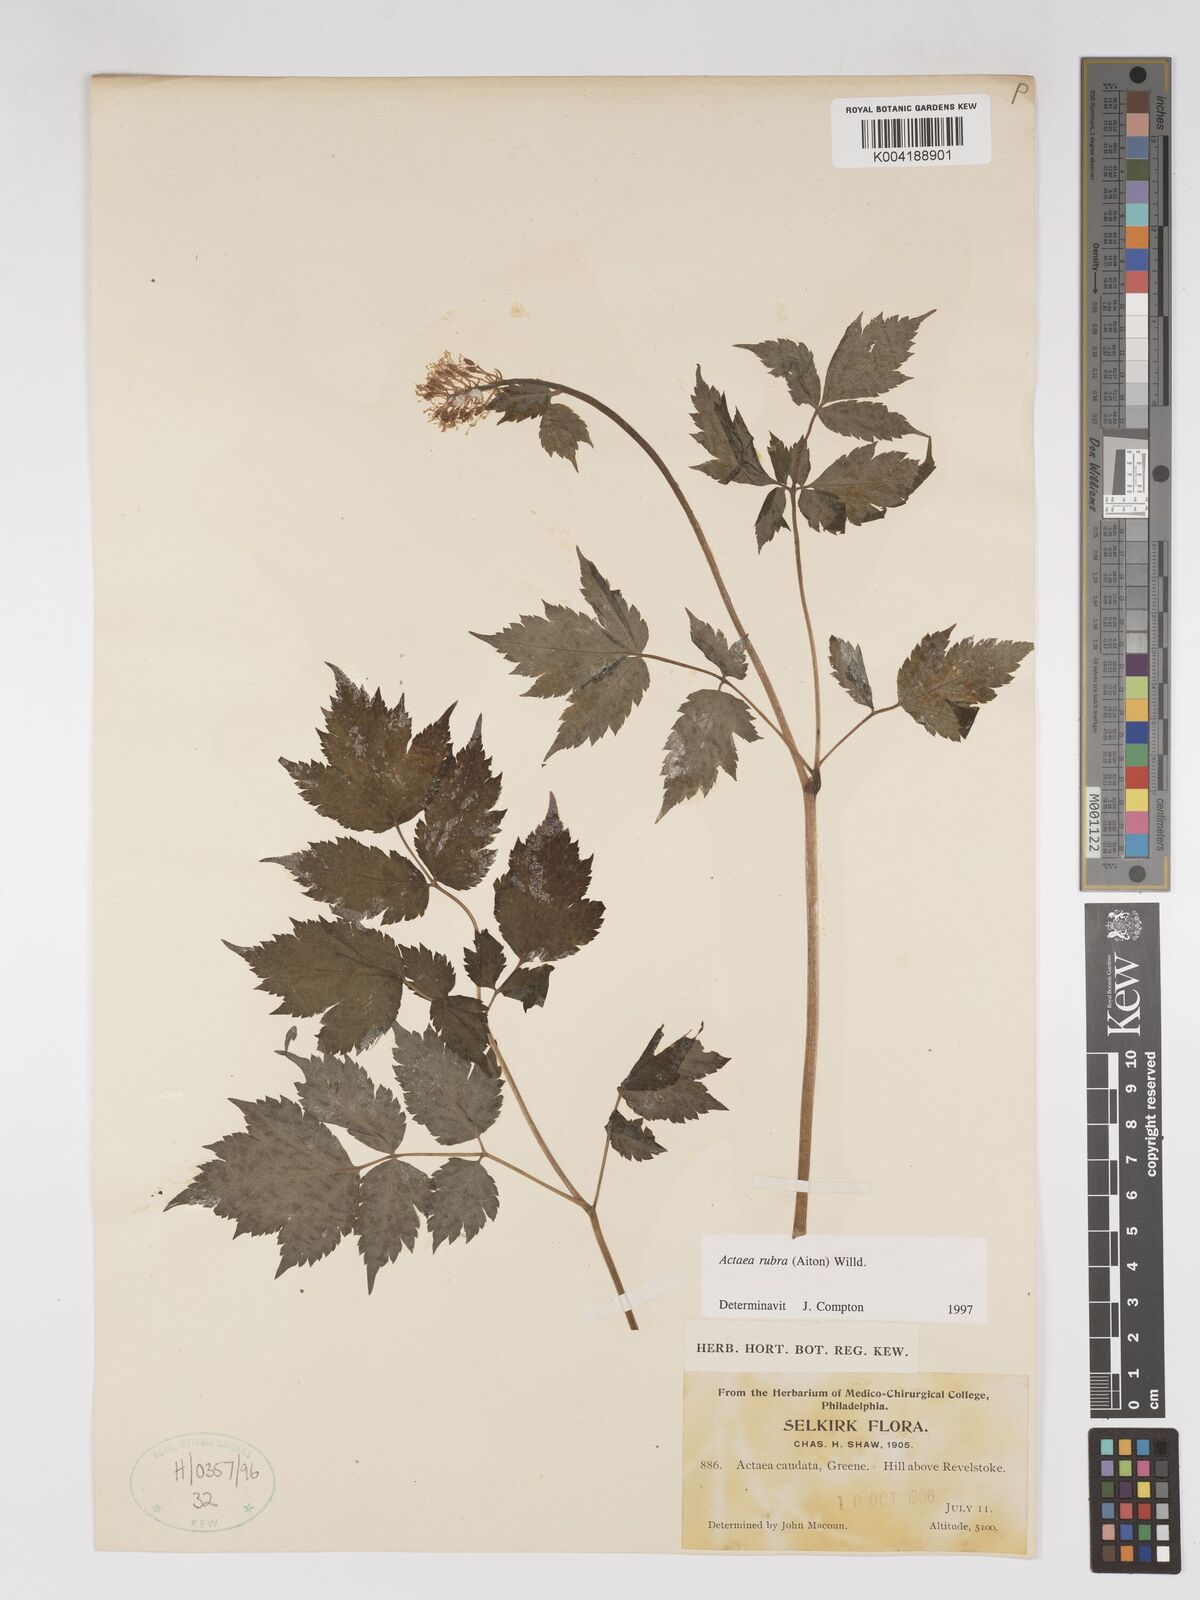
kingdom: Plantae
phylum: Tracheophyta
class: Magnoliopsida
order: Ranunculales
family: Ranunculaceae
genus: Actaea
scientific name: Actaea rubra
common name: Red baneberry
